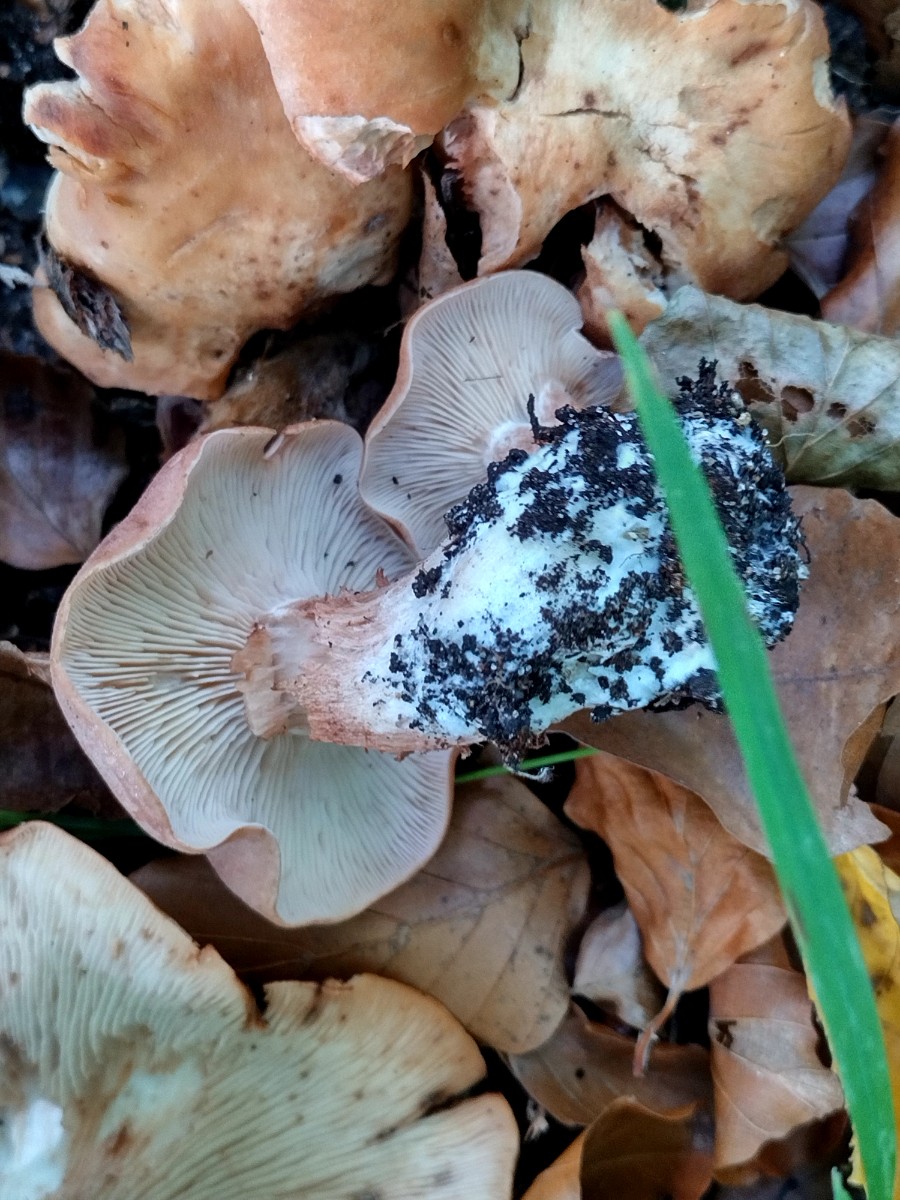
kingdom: Fungi
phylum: Basidiomycota
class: Agaricomycetes
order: Agaricales
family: Entolomataceae
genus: Clitopilus
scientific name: Clitopilus geminus
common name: kødfarvet troldhat
